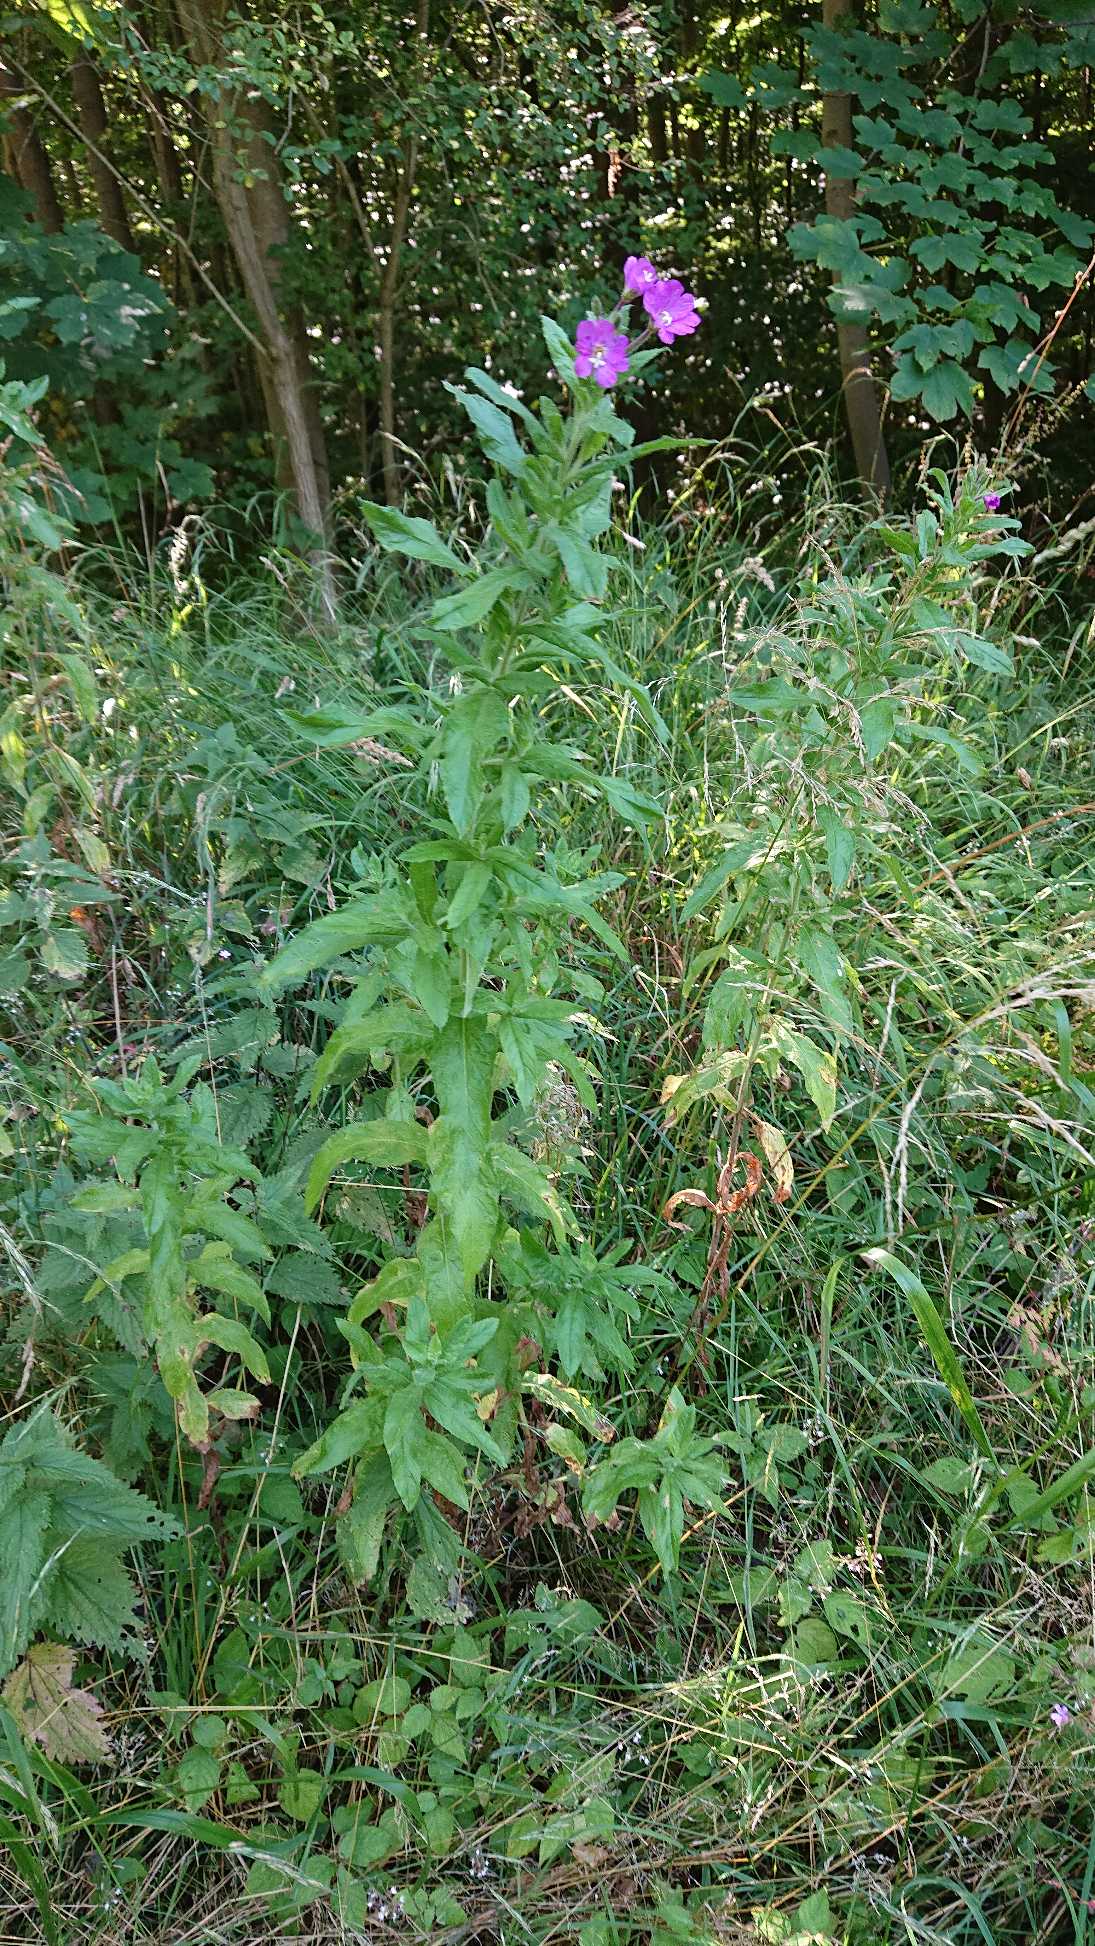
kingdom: Plantae
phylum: Tracheophyta
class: Magnoliopsida
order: Myrtales
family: Onagraceae
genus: Epilobium
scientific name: Epilobium hirsutum
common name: Lådden dueurt
